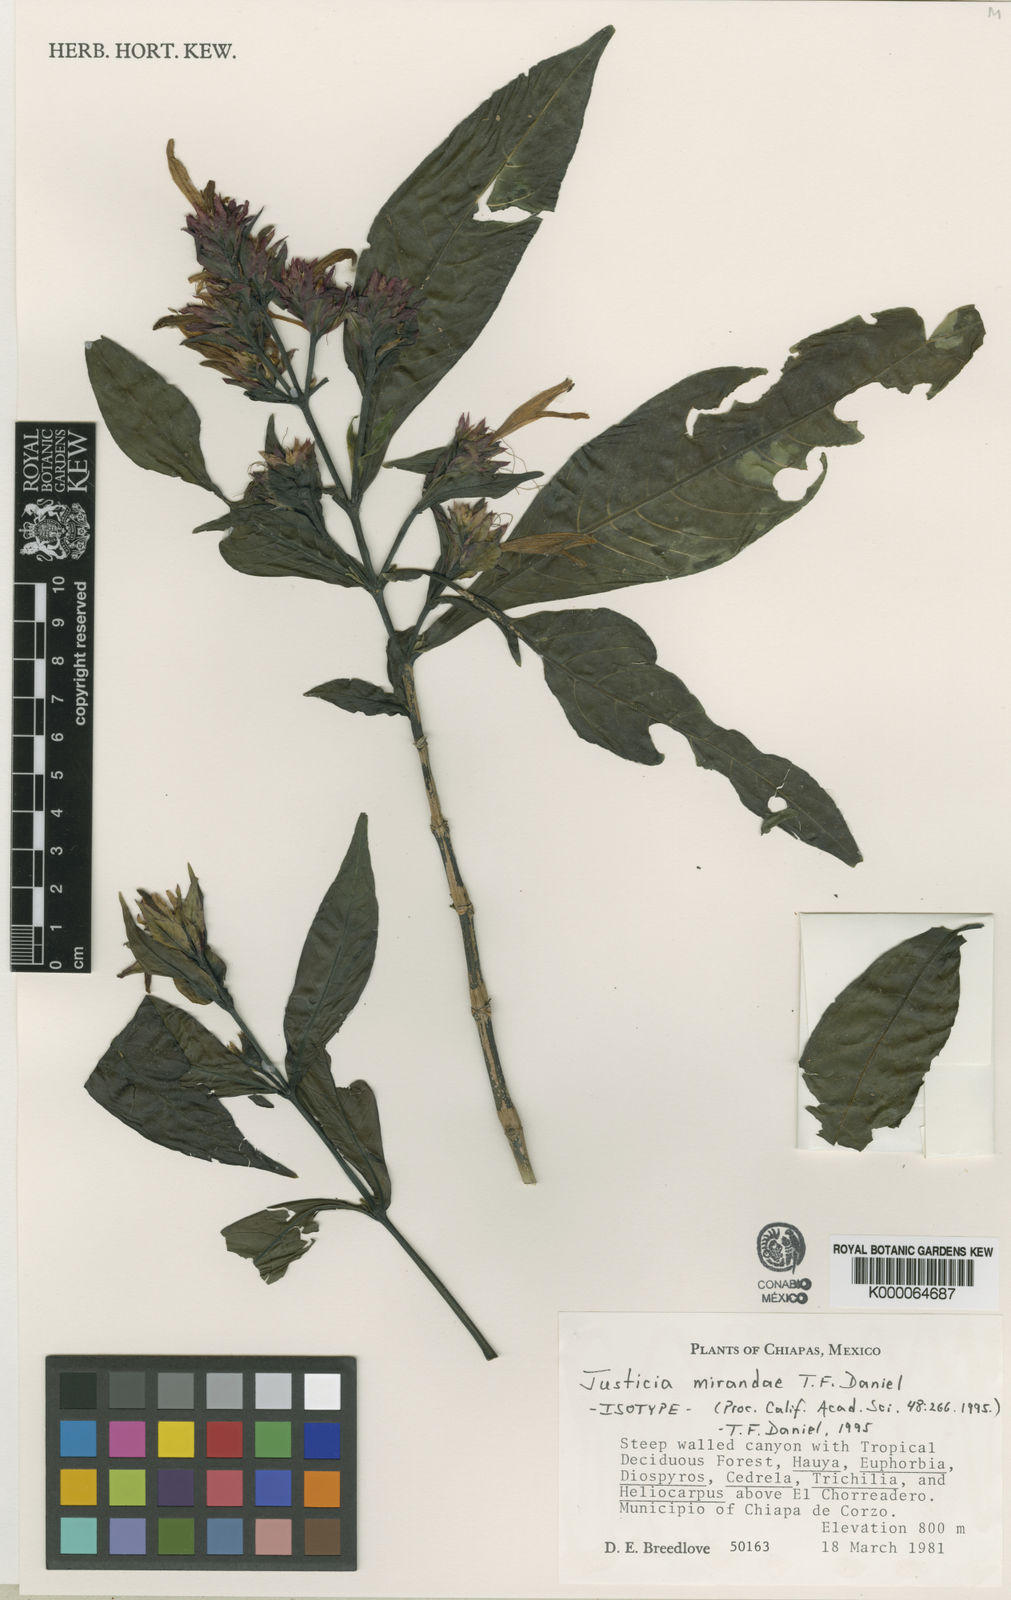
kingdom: Plantae
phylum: Tracheophyta
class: Magnoliopsida
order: Lamiales
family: Acanthaceae
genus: Justicia
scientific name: Justicia mirandae
